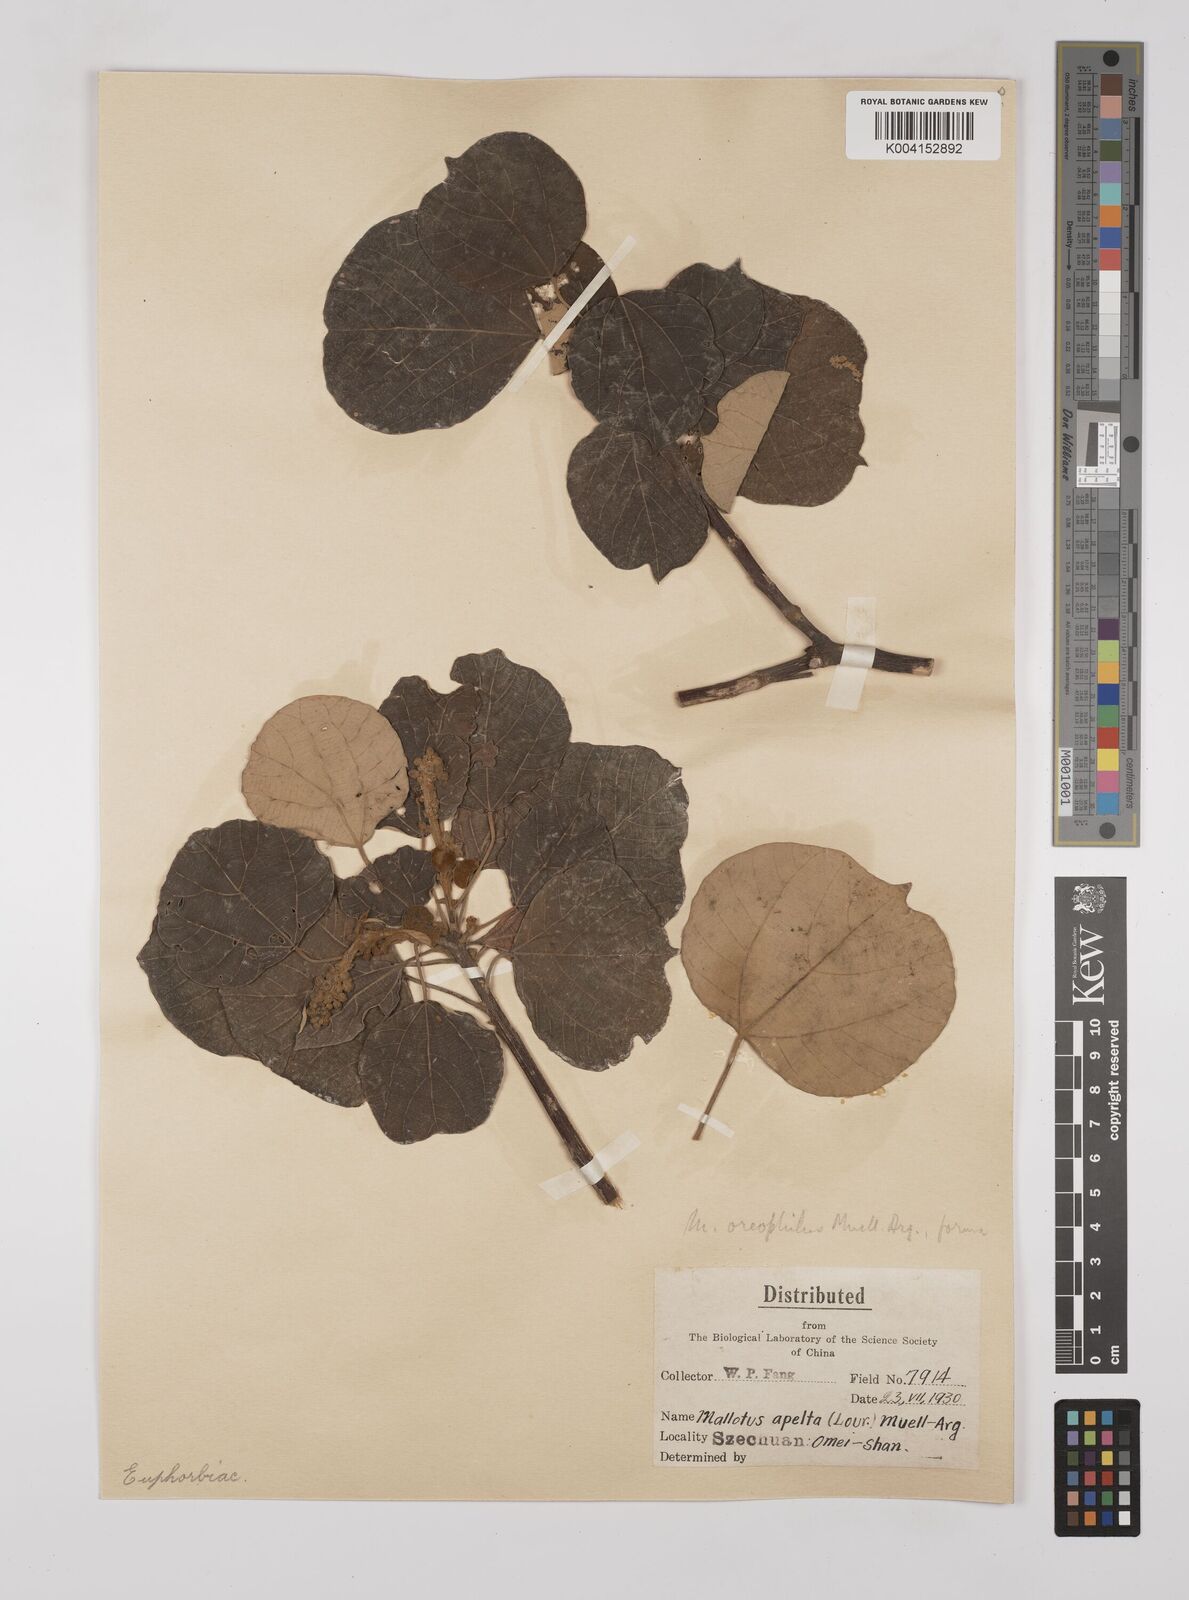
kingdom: Plantae
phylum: Tracheophyta
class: Magnoliopsida
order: Malpighiales
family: Euphorbiaceae
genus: Mallotus
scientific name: Mallotus oreophilus
